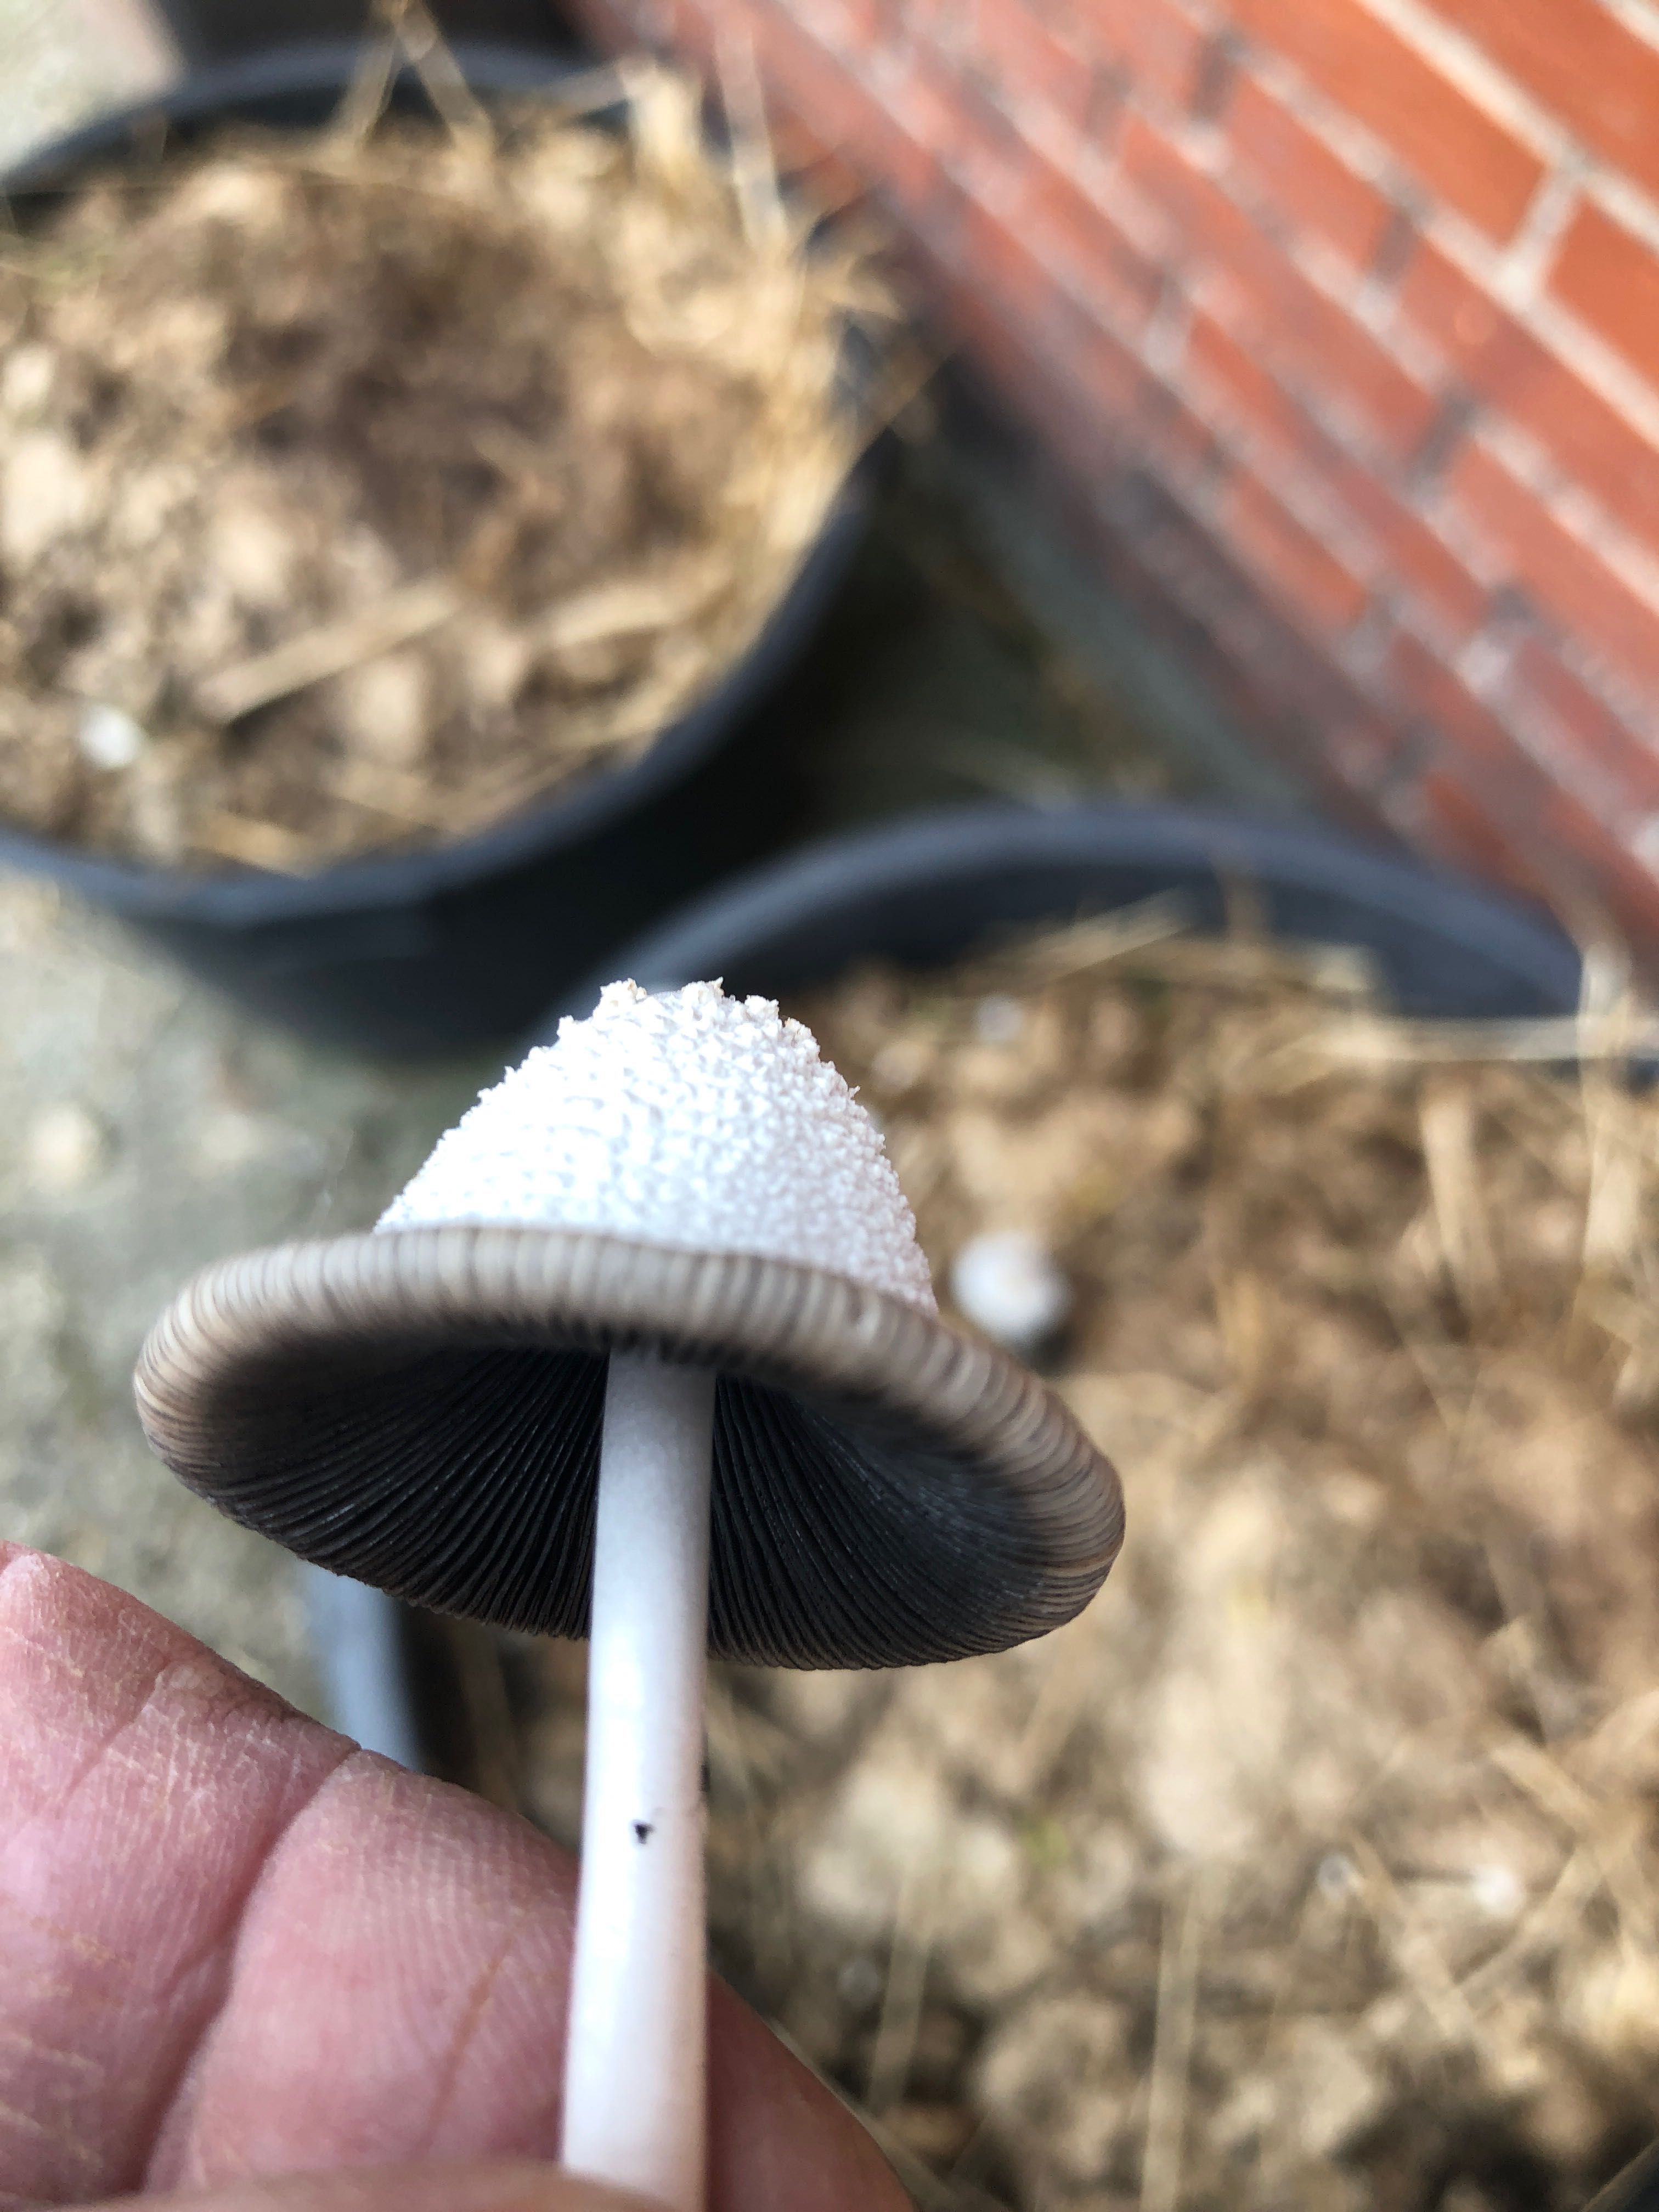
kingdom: Fungi
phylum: Basidiomycota
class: Agaricomycetes
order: Agaricales
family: Psathyrellaceae
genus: Coprinopsis
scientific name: Coprinopsis nivea
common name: snehvid blækhat
